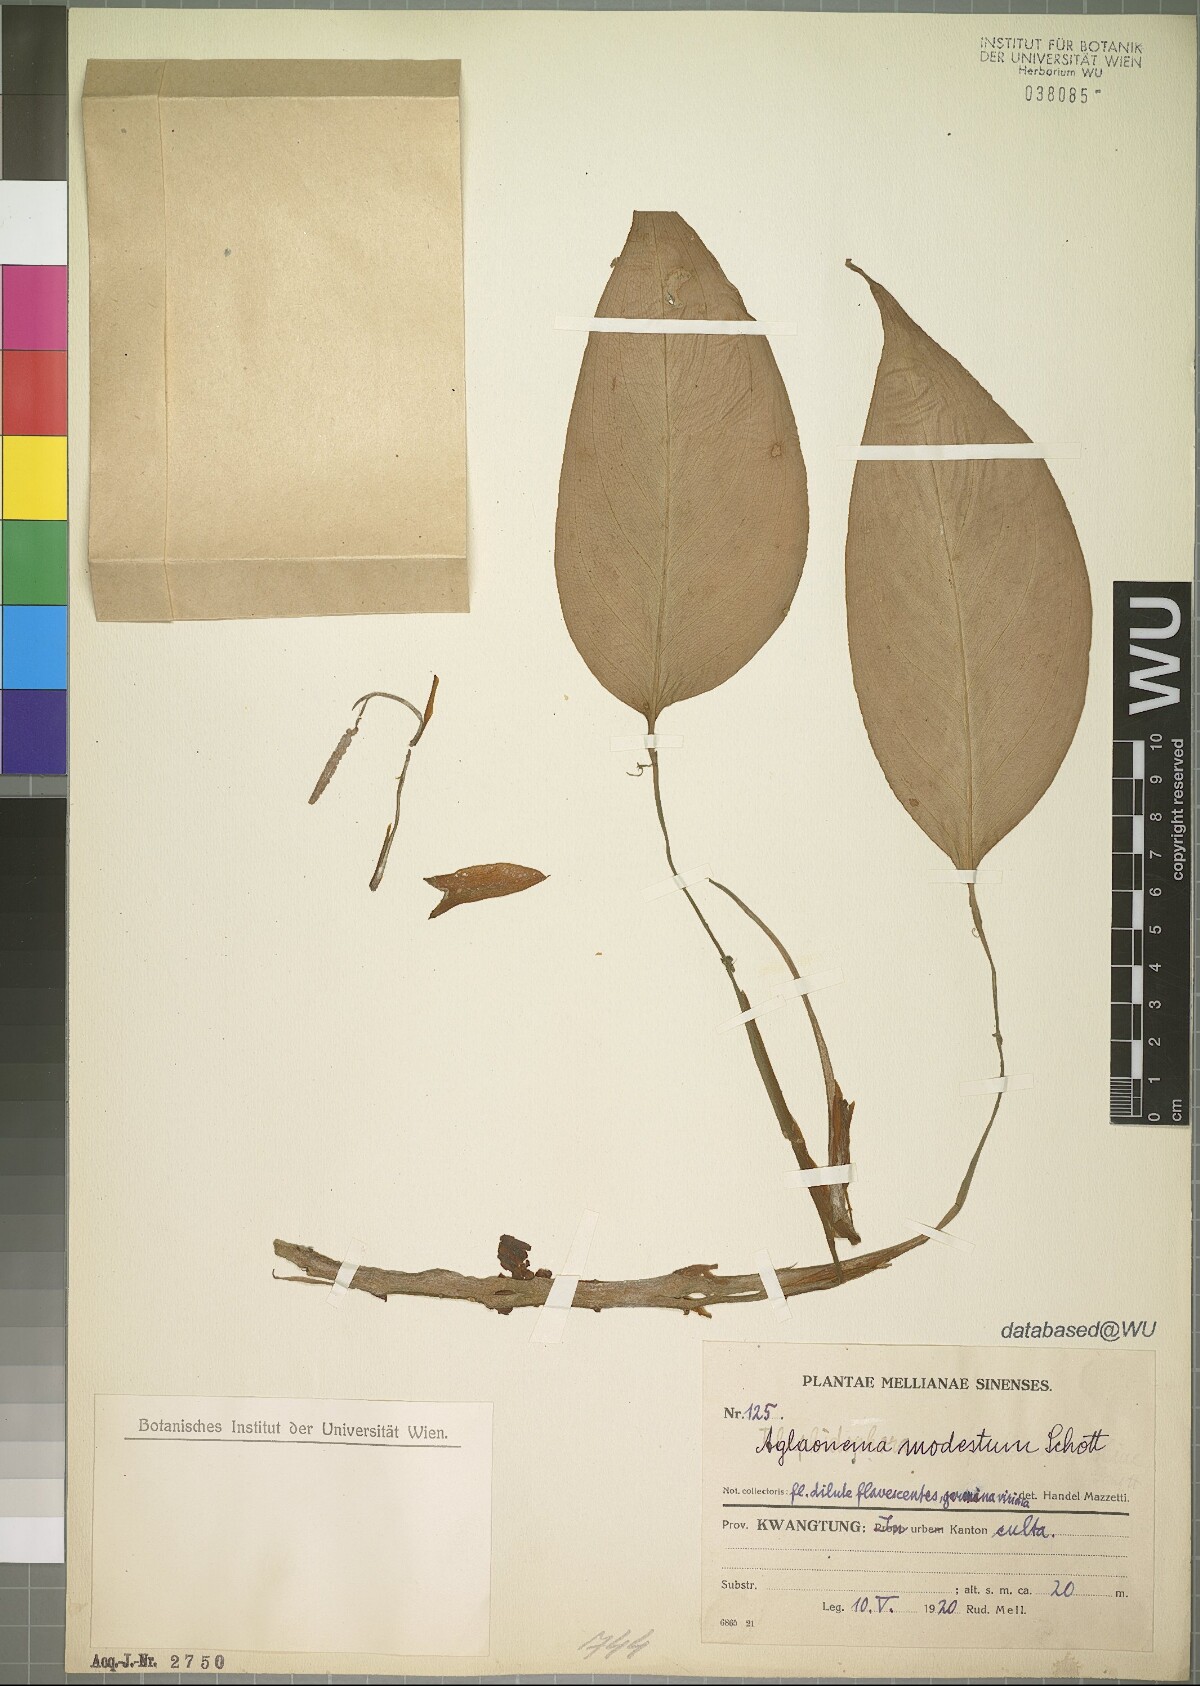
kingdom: Plantae
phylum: Tracheophyta
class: Liliopsida
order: Alismatales
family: Araceae
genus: Aglaonema
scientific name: Aglaonema modestum
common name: Chinese evergreen
